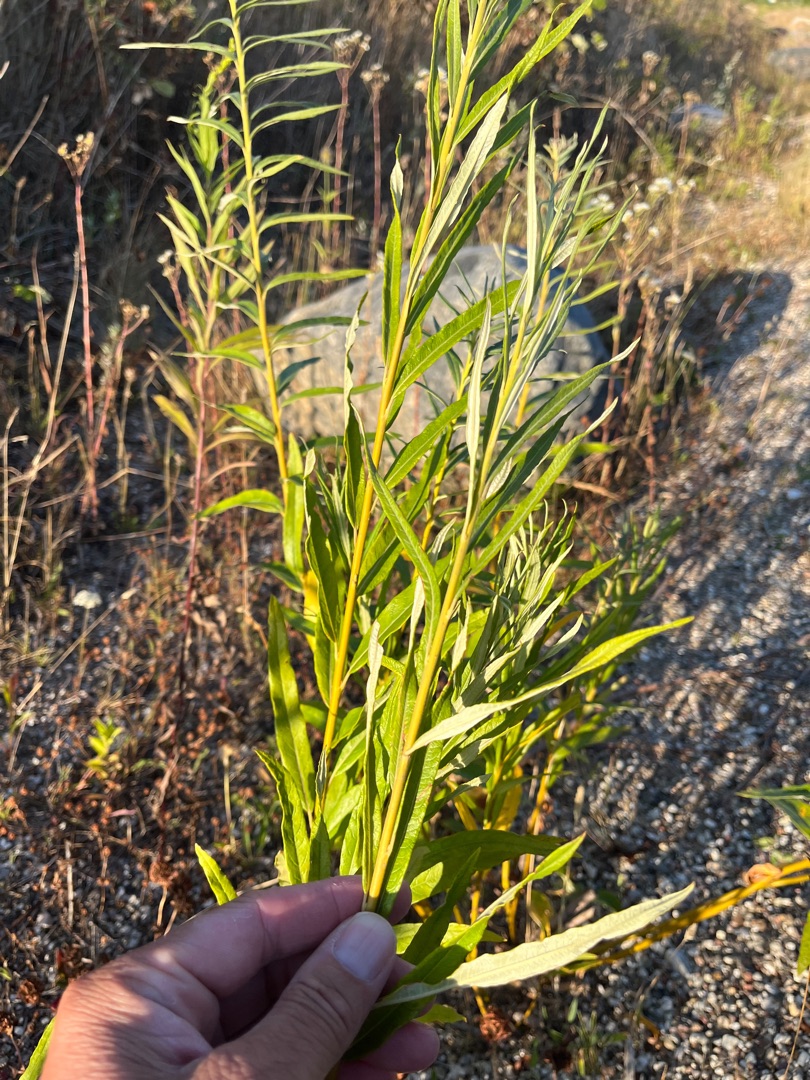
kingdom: Plantae
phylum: Tracheophyta
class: Magnoliopsida
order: Malpighiales
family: Salicaceae
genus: Salix
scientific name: Salix viminalis
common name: Bånd-pil
